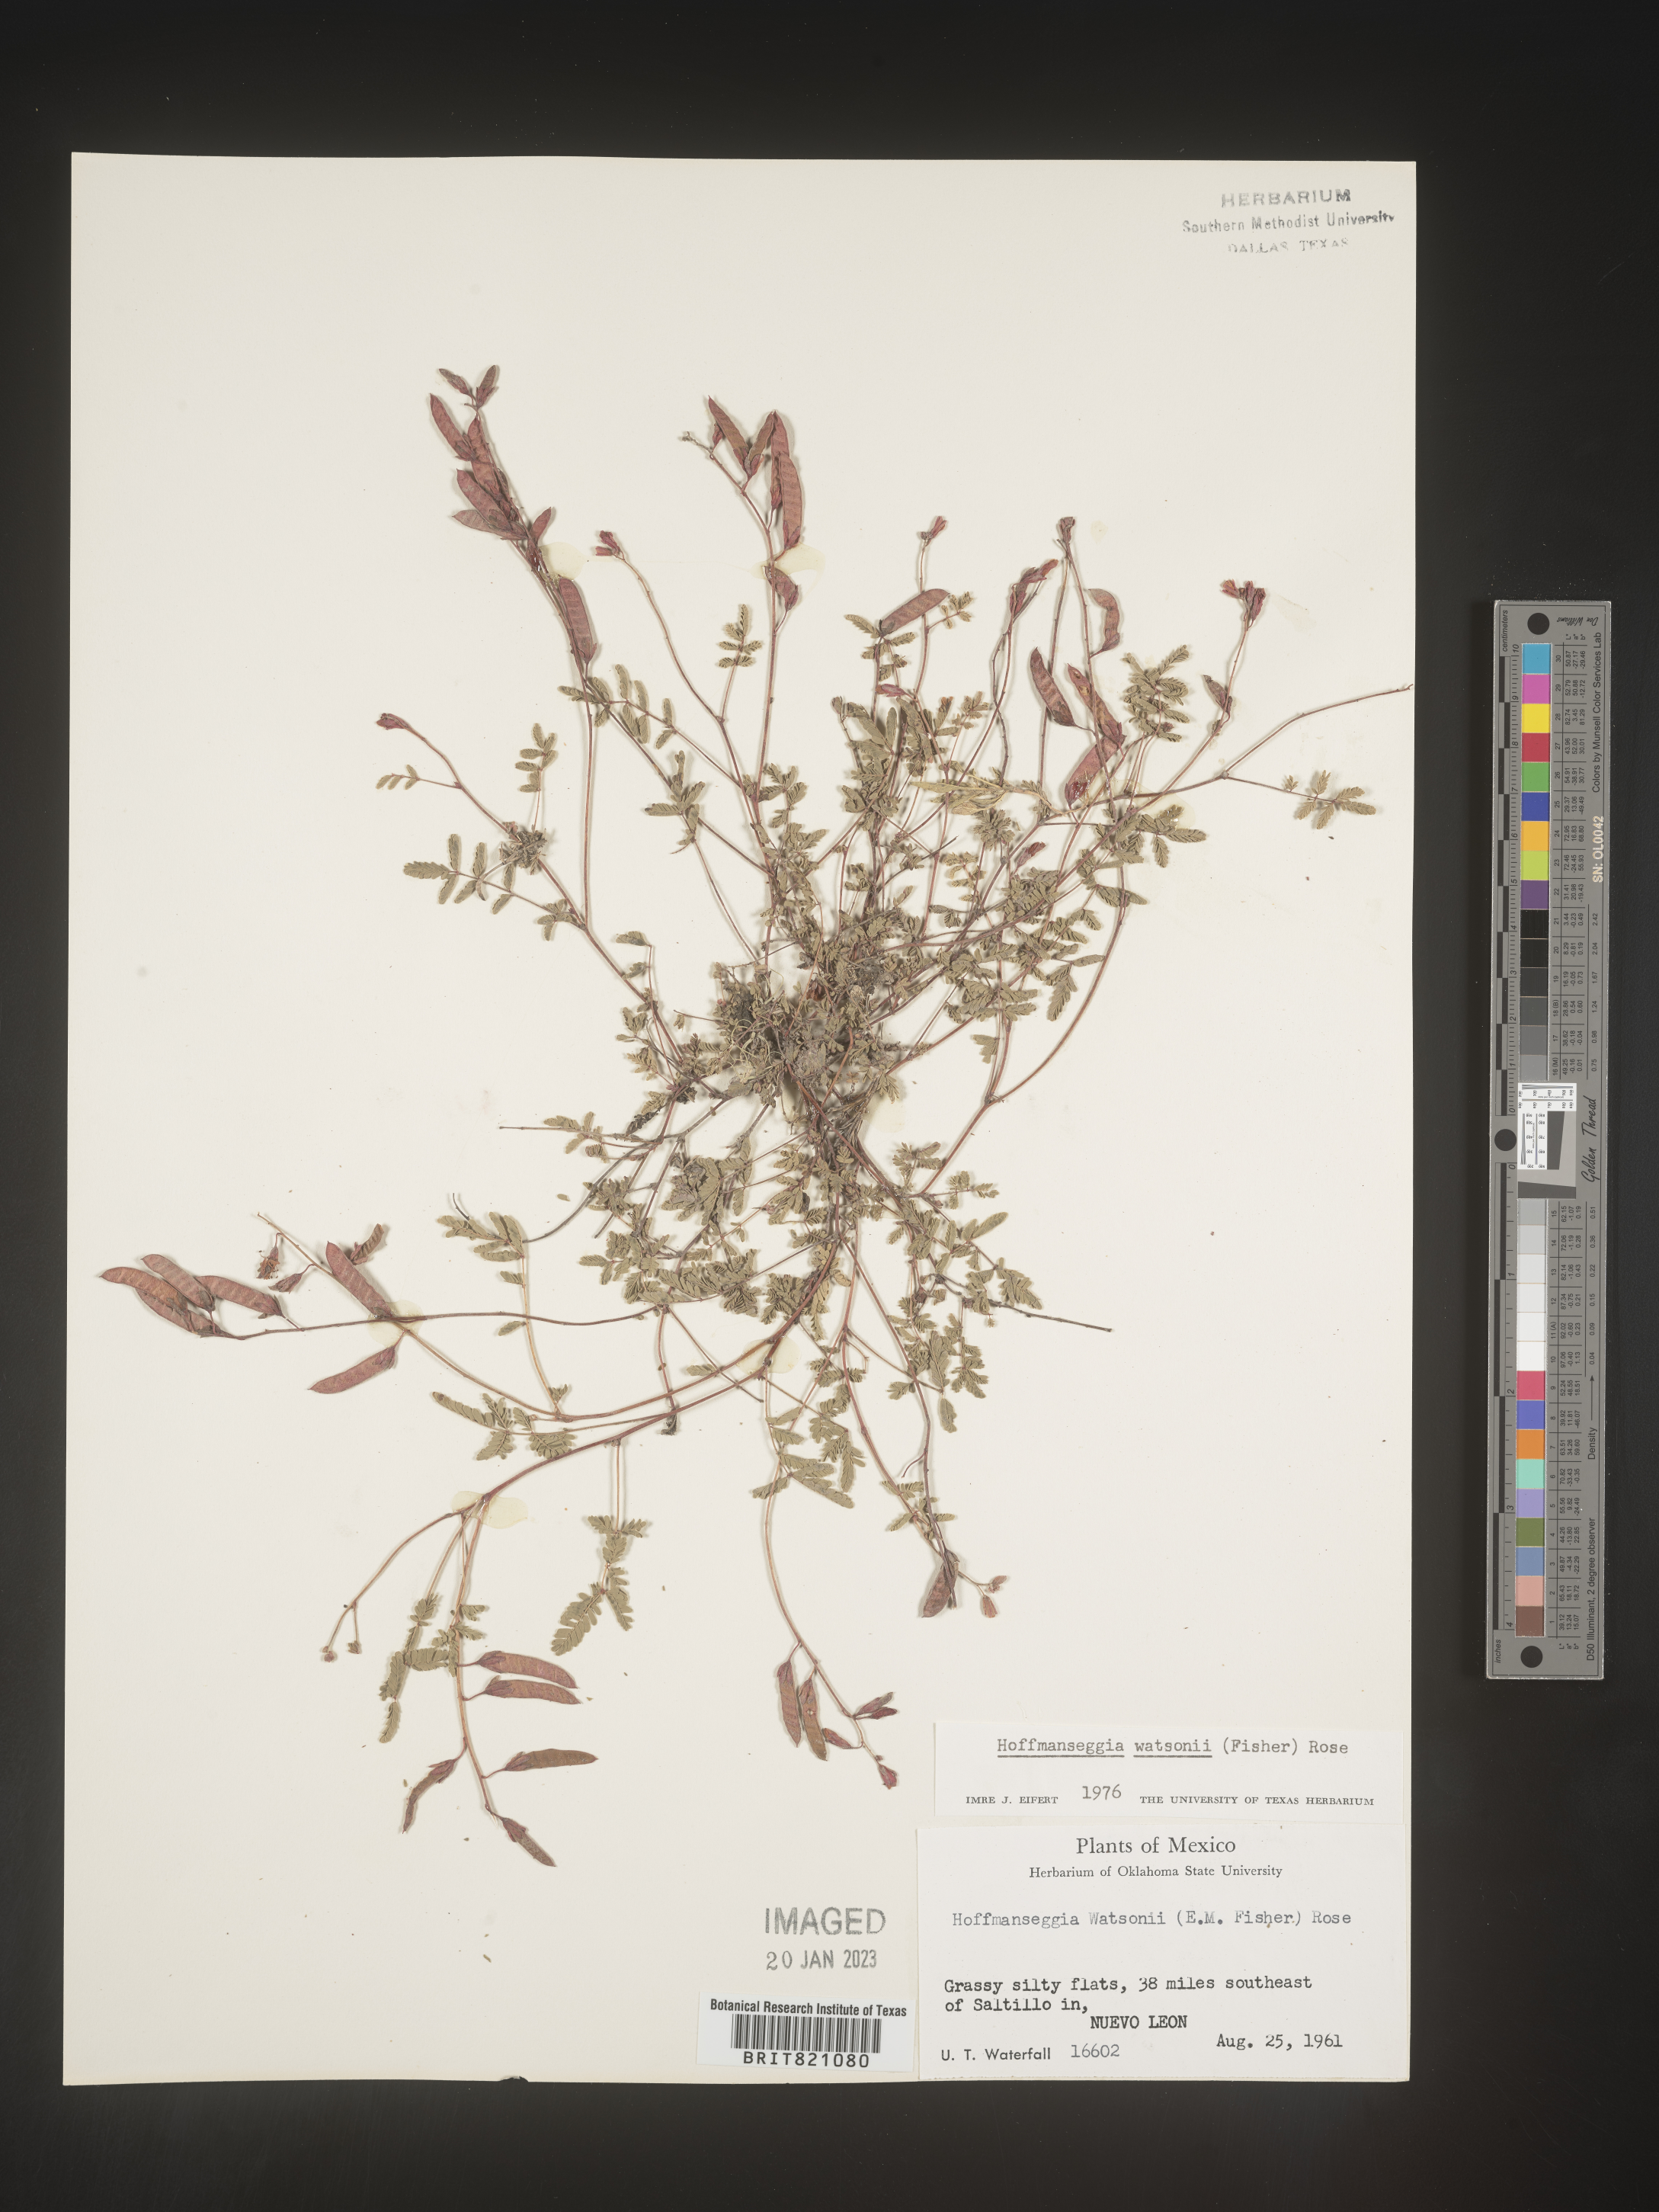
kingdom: Plantae
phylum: Tracheophyta
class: Magnoliopsida
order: Fabales
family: Fabaceae
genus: Hoffmannseggia
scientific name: Hoffmannseggia
